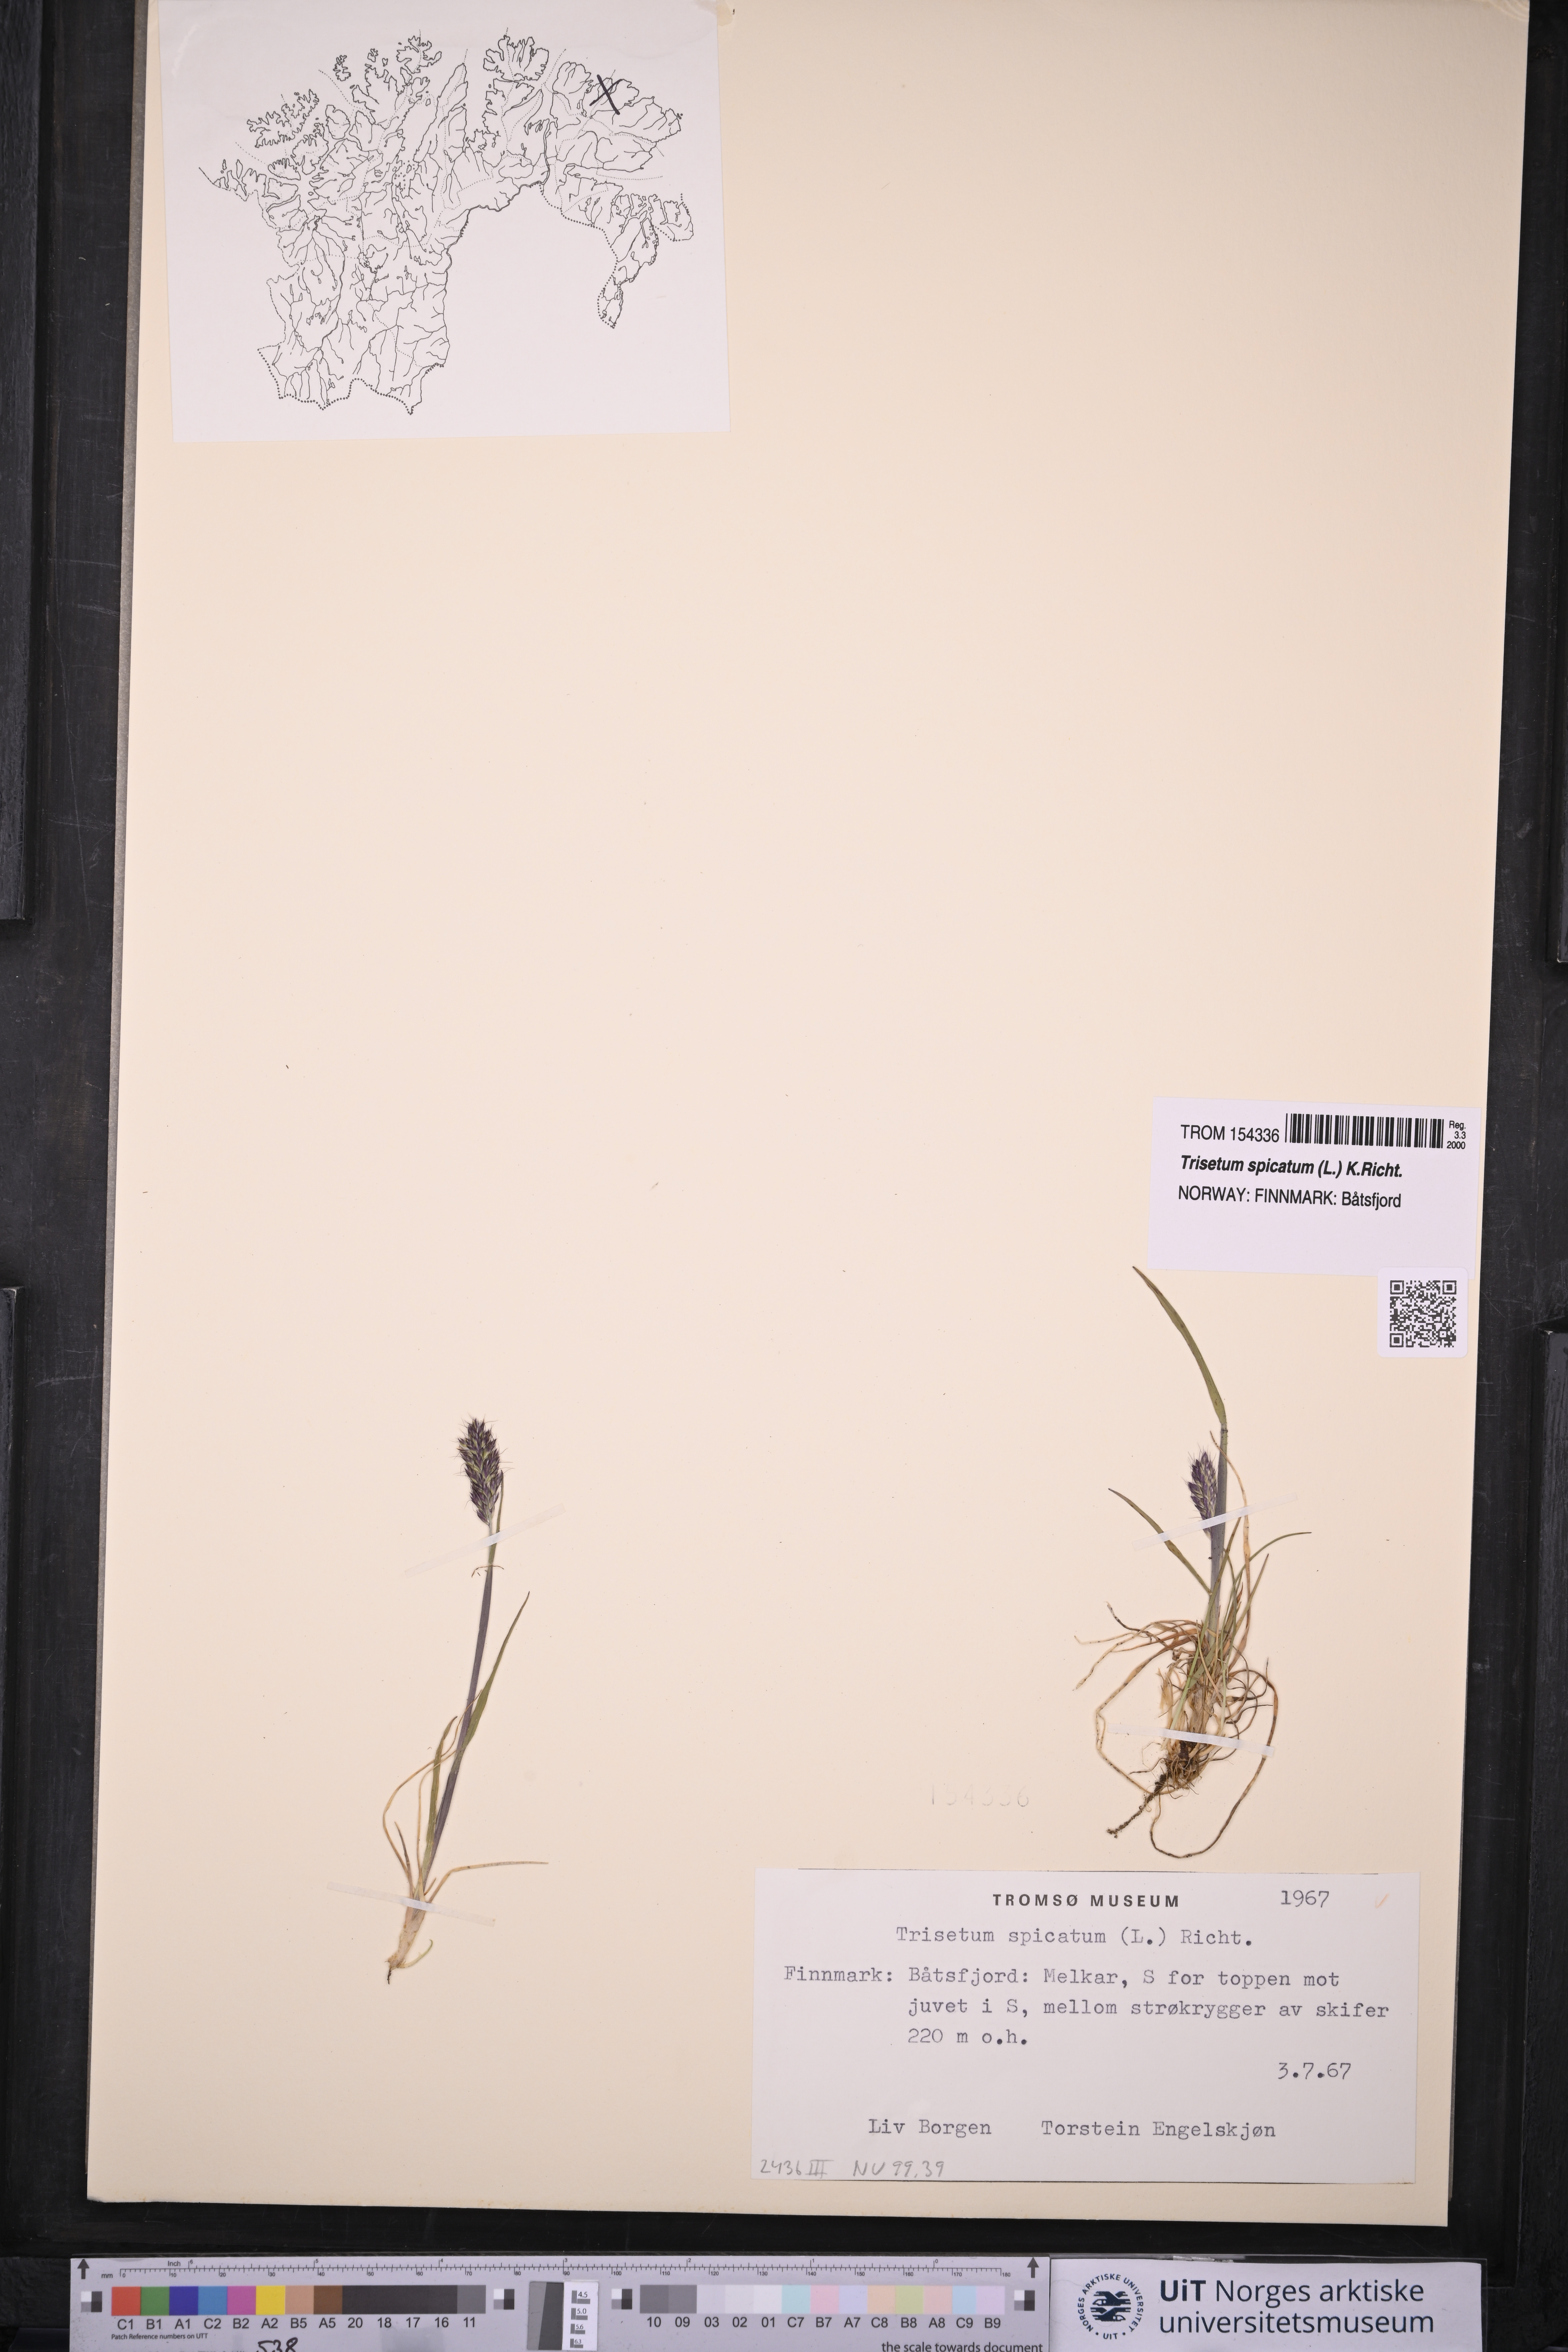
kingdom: Plantae
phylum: Tracheophyta
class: Liliopsida
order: Poales
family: Poaceae
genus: Koeleria
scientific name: Koeleria spicata
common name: Mountain trisetum
